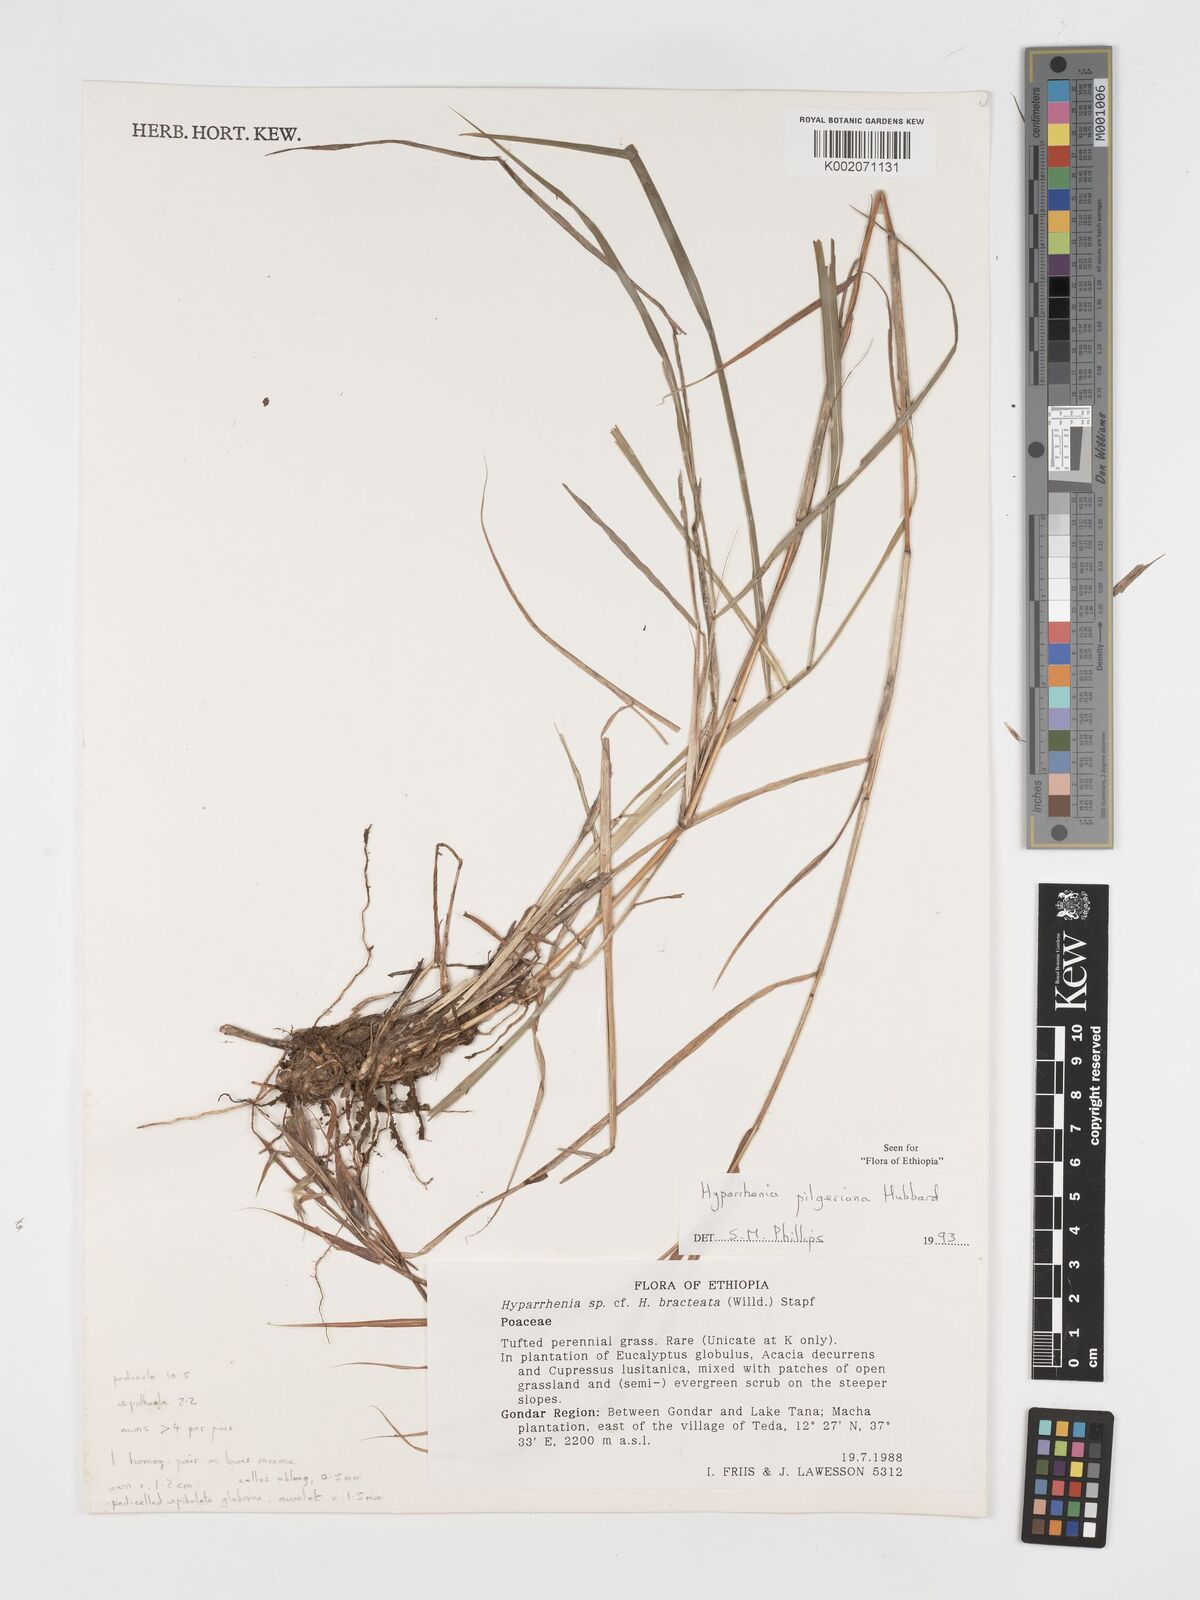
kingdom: Plantae
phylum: Tracheophyta
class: Liliopsida
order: Poales
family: Poaceae
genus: Hyparrhenia
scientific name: Hyparrhenia pilgeriana
